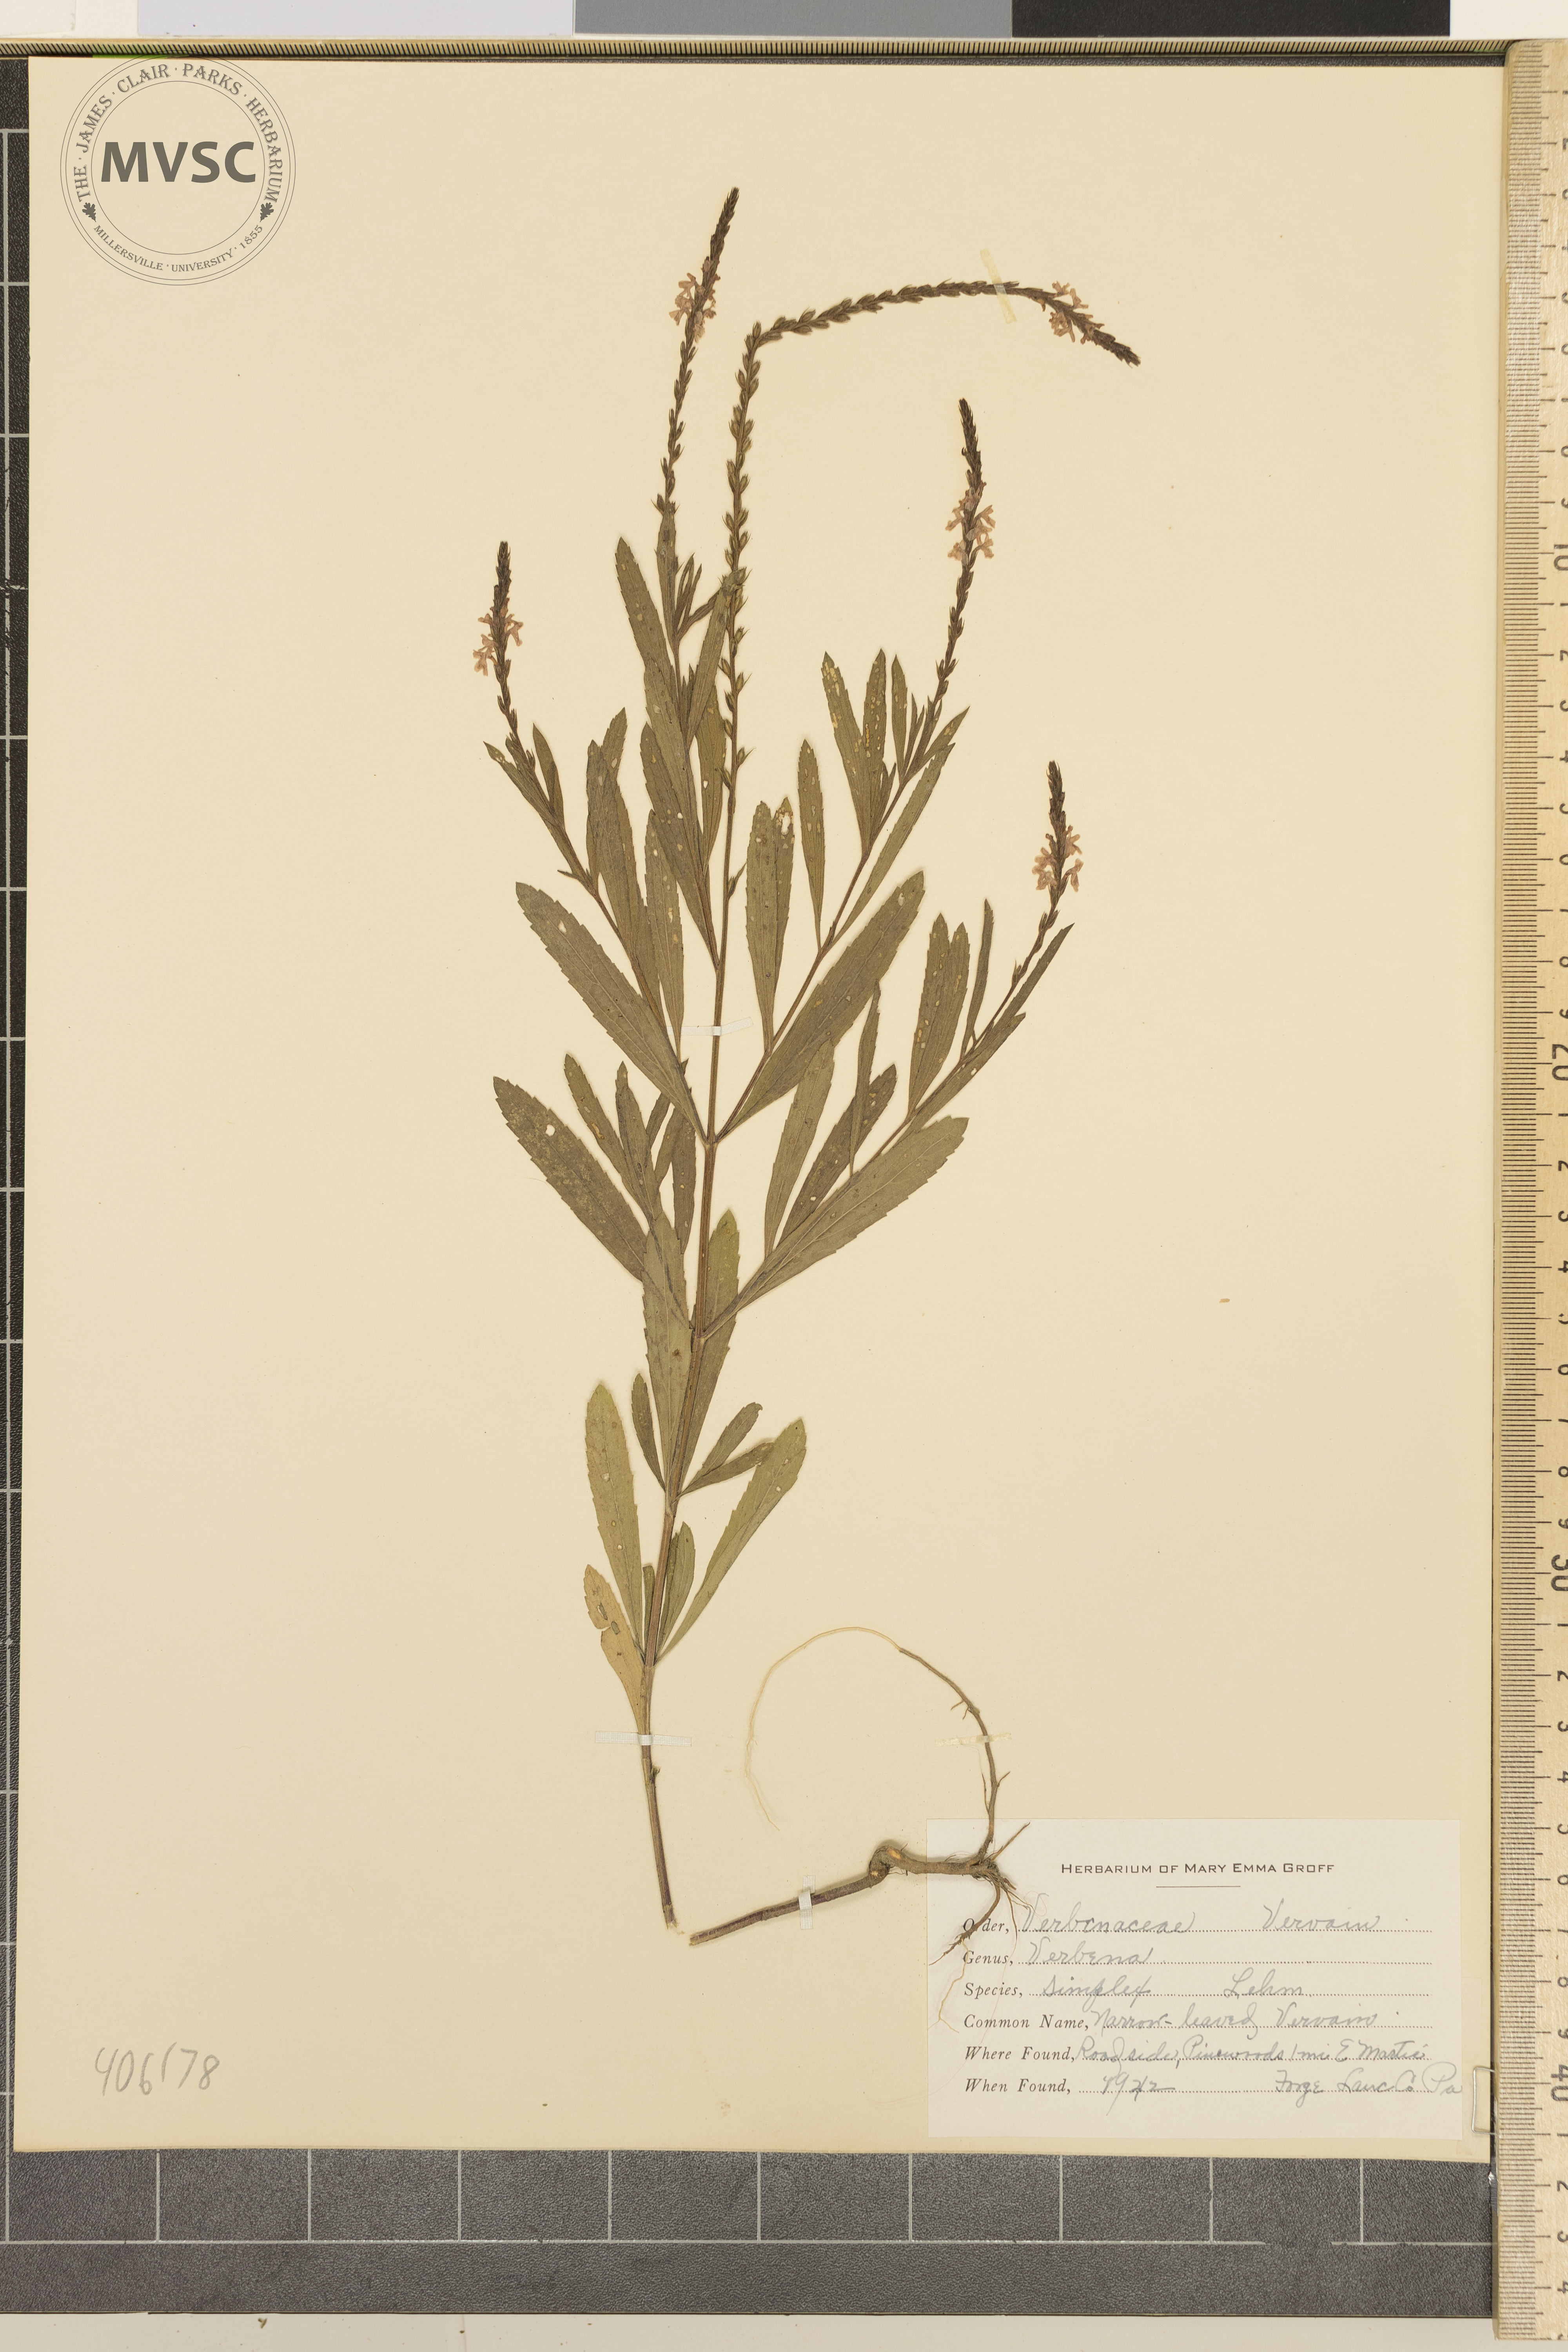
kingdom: Plantae
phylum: Tracheophyta
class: Magnoliopsida
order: Lamiales
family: Verbenaceae
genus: Verbena
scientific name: Verbena simplex
